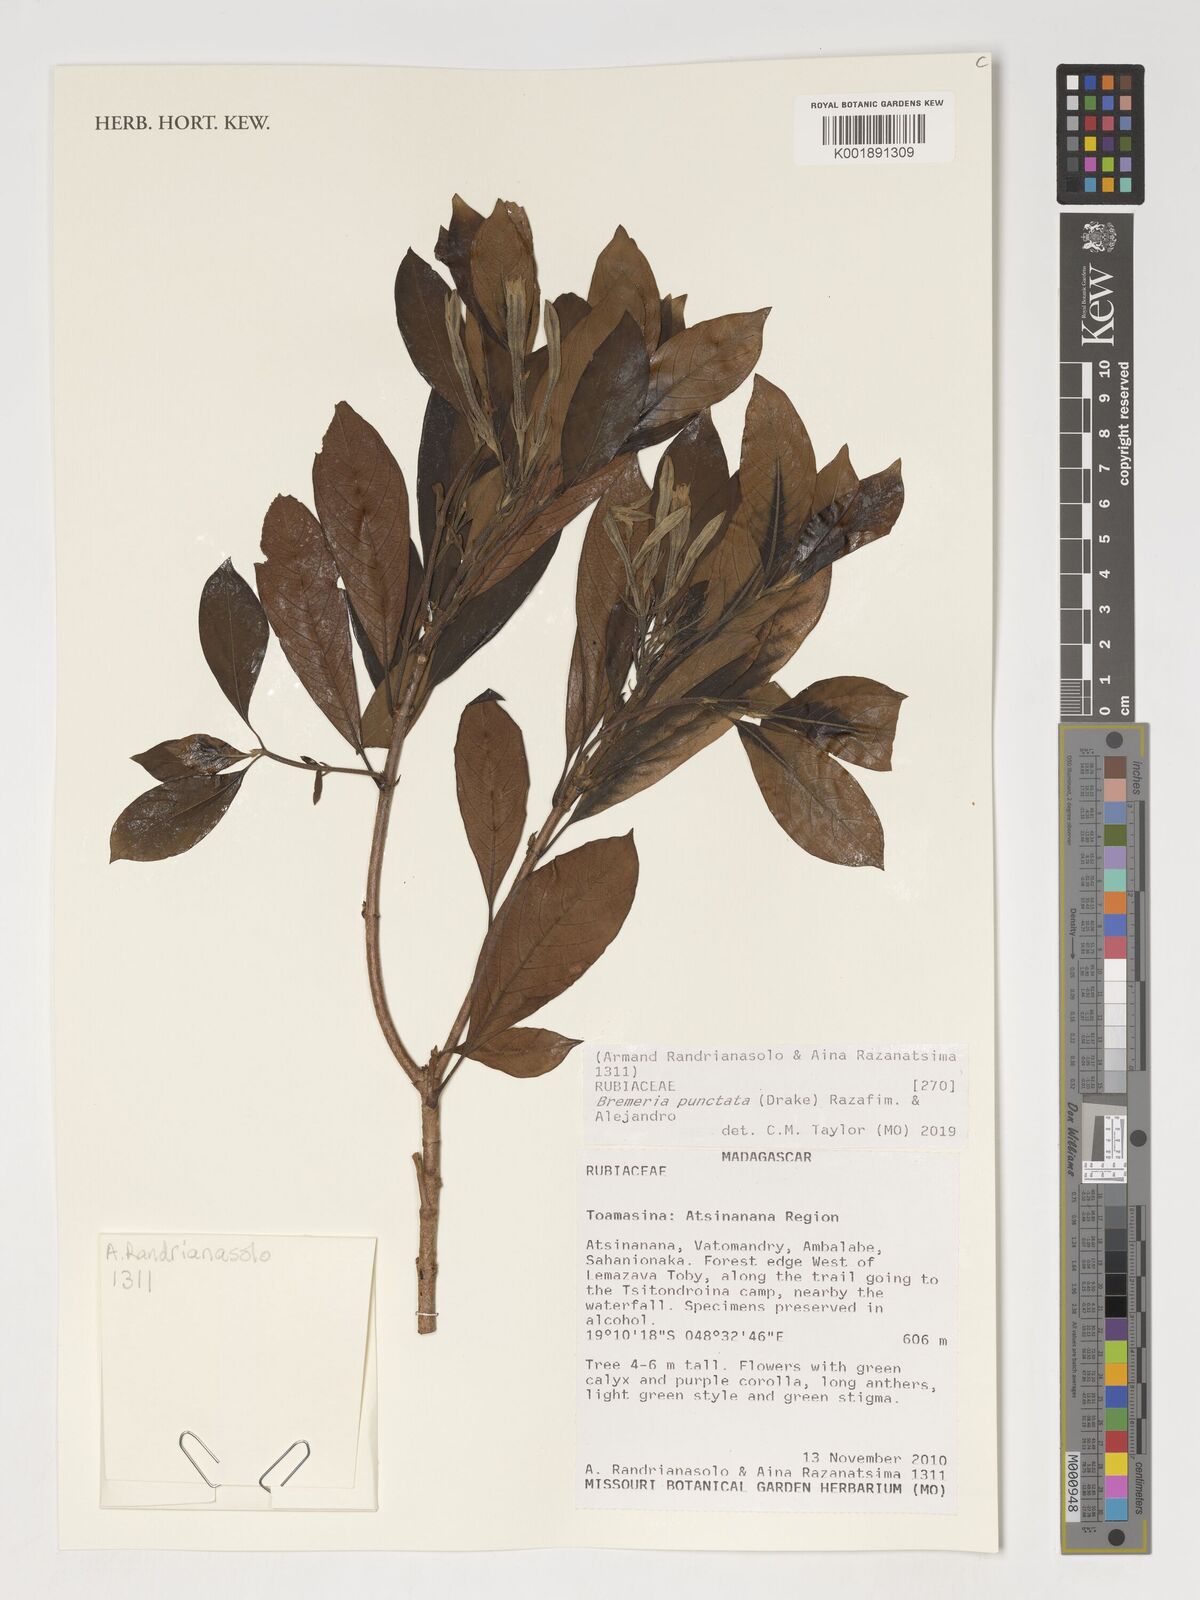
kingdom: Plantae
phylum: Tracheophyta
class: Magnoliopsida
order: Gentianales
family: Rubiaceae
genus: Bremeria
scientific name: Bremeria punctata
